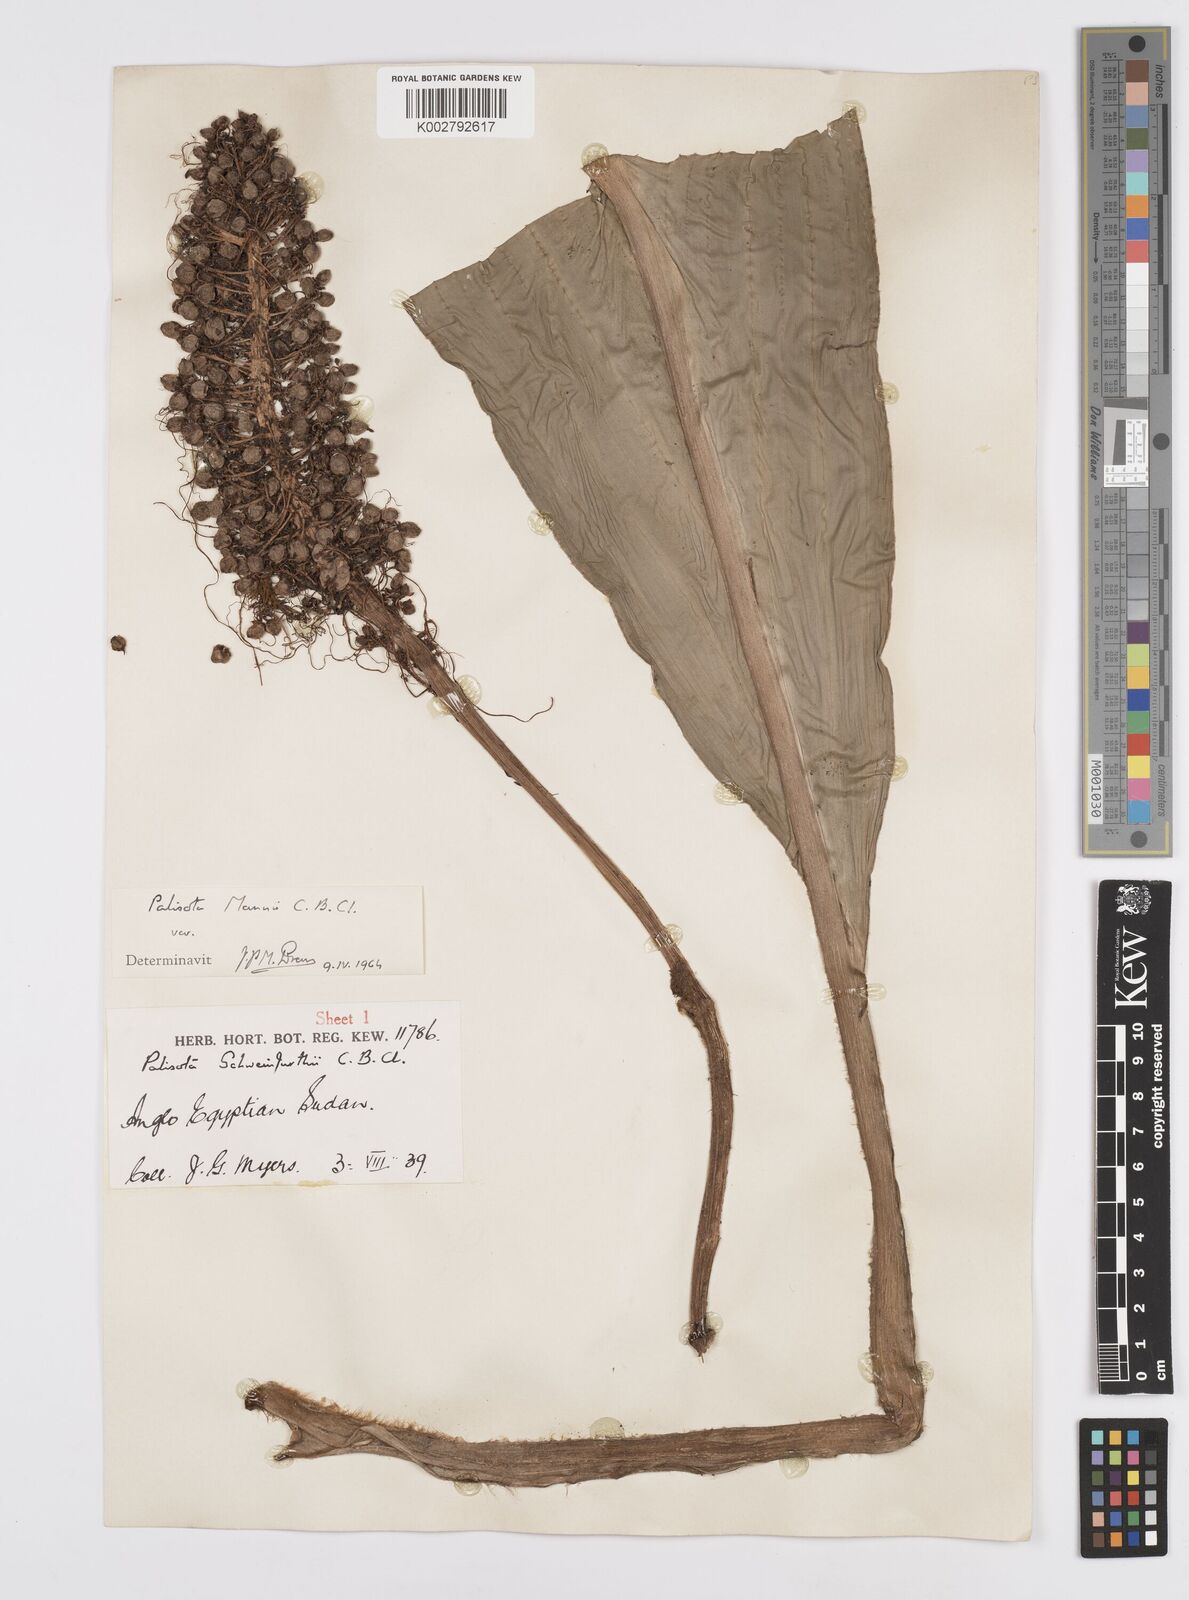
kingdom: Plantae
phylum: Tracheophyta
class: Liliopsida
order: Commelinales
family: Commelinaceae
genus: Palisota
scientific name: Palisota mannii
